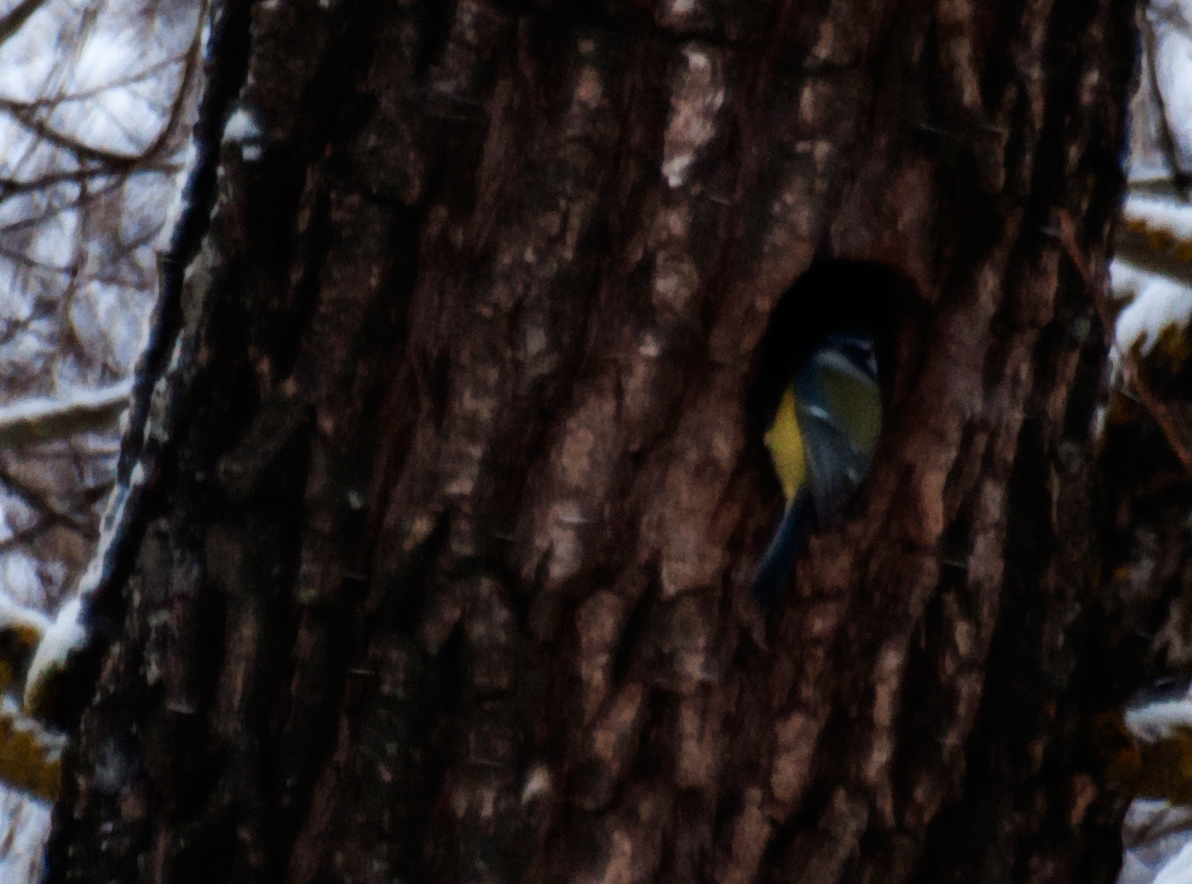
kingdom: Animalia
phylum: Chordata
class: Aves
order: Passeriformes
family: Paridae
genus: Cyanistes
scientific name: Cyanistes caeruleus
